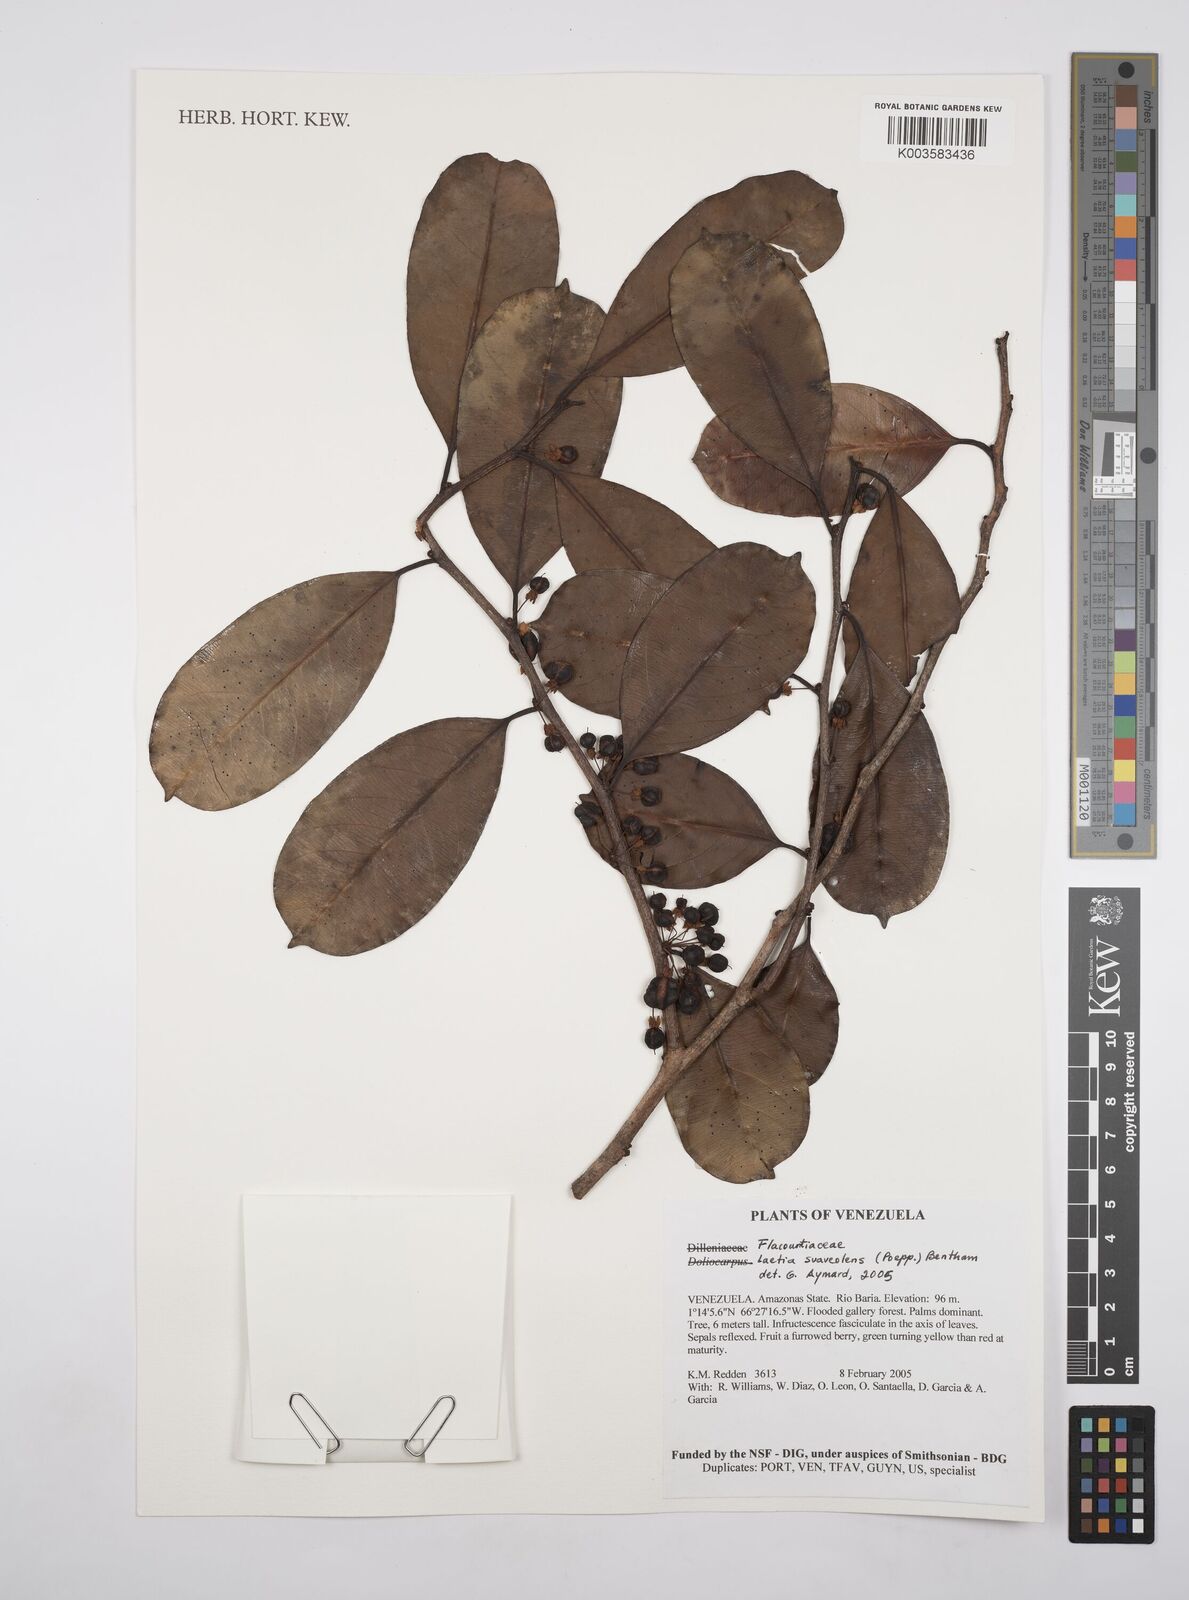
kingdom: Plantae
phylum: Tracheophyta
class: Magnoliopsida
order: Malpighiales
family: Salicaceae
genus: Casearia
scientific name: Casearia suaveolens
